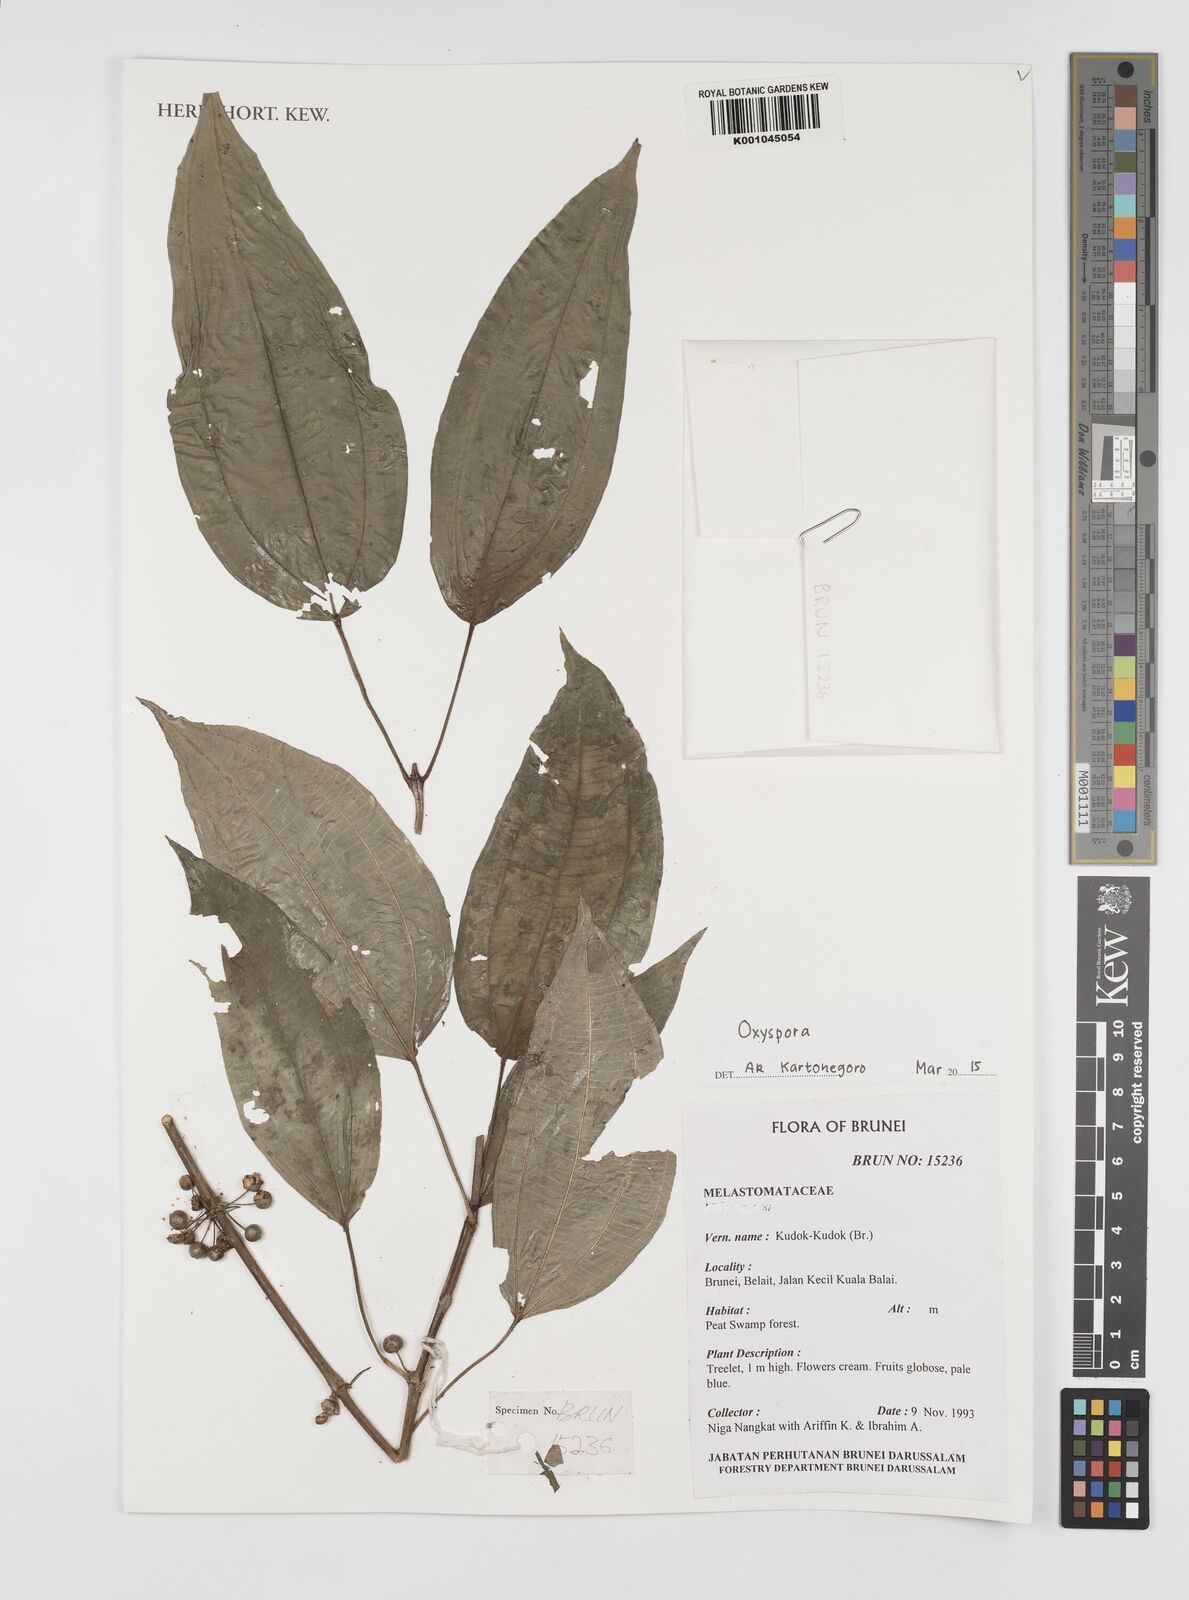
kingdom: Plantae
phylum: Tracheophyta
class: Magnoliopsida
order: Myrtales
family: Melastomataceae
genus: Oxyspora
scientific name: Oxyspora
